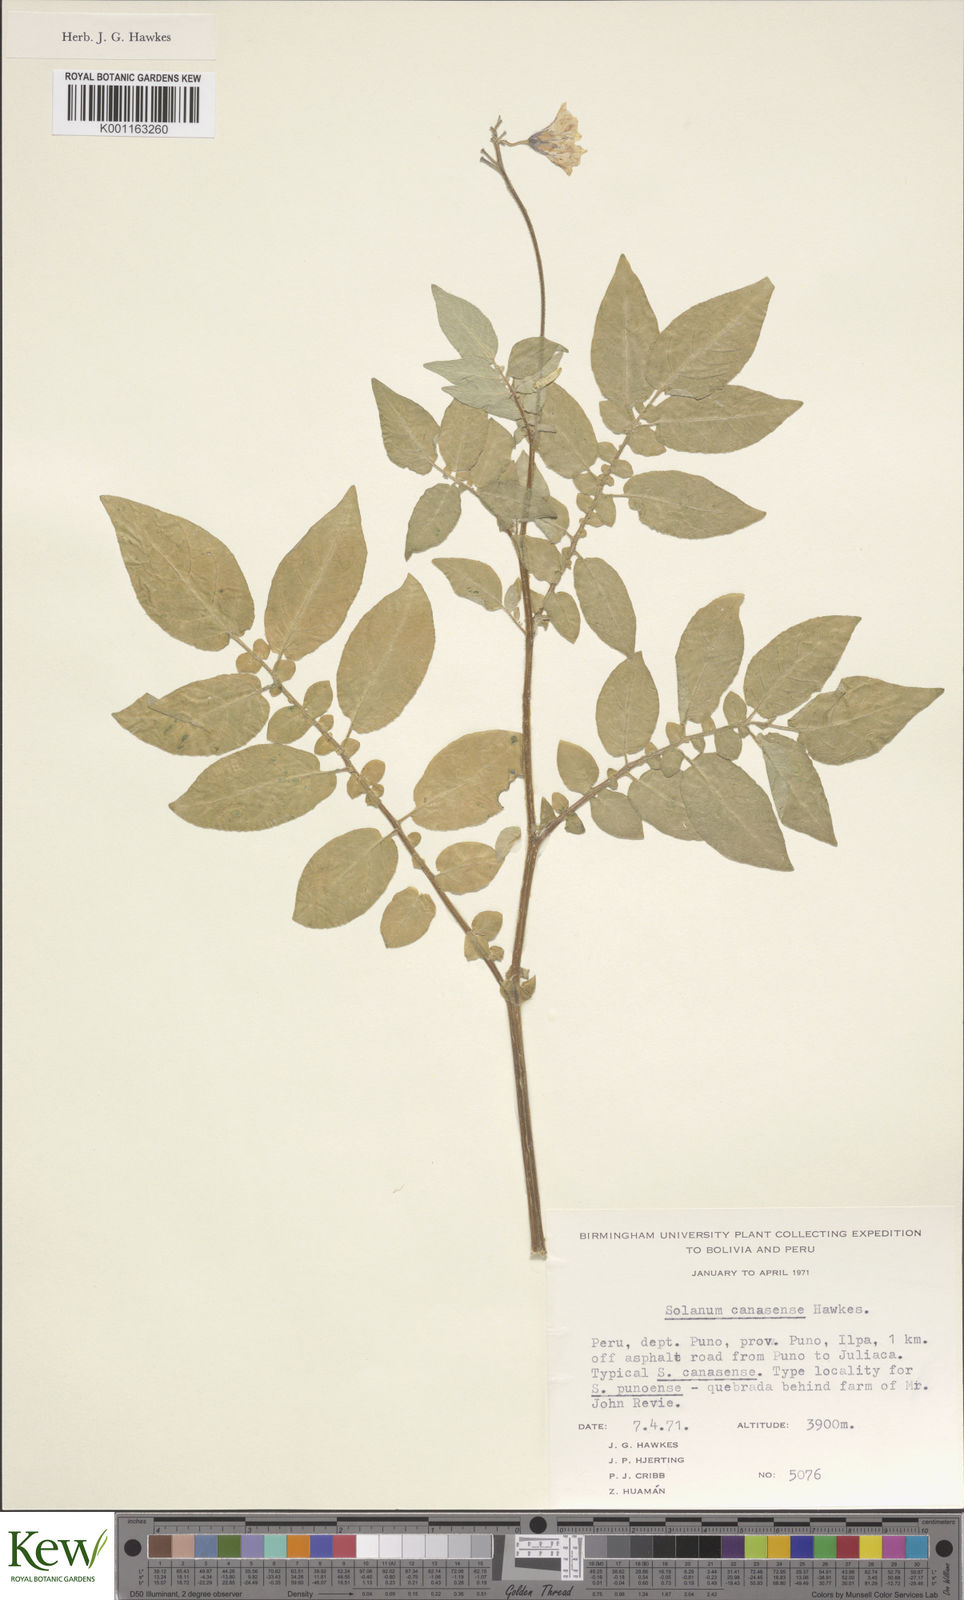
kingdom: Plantae
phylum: Tracheophyta
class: Magnoliopsida
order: Solanales
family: Solanaceae
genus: Solanum
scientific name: Solanum candolleanum
